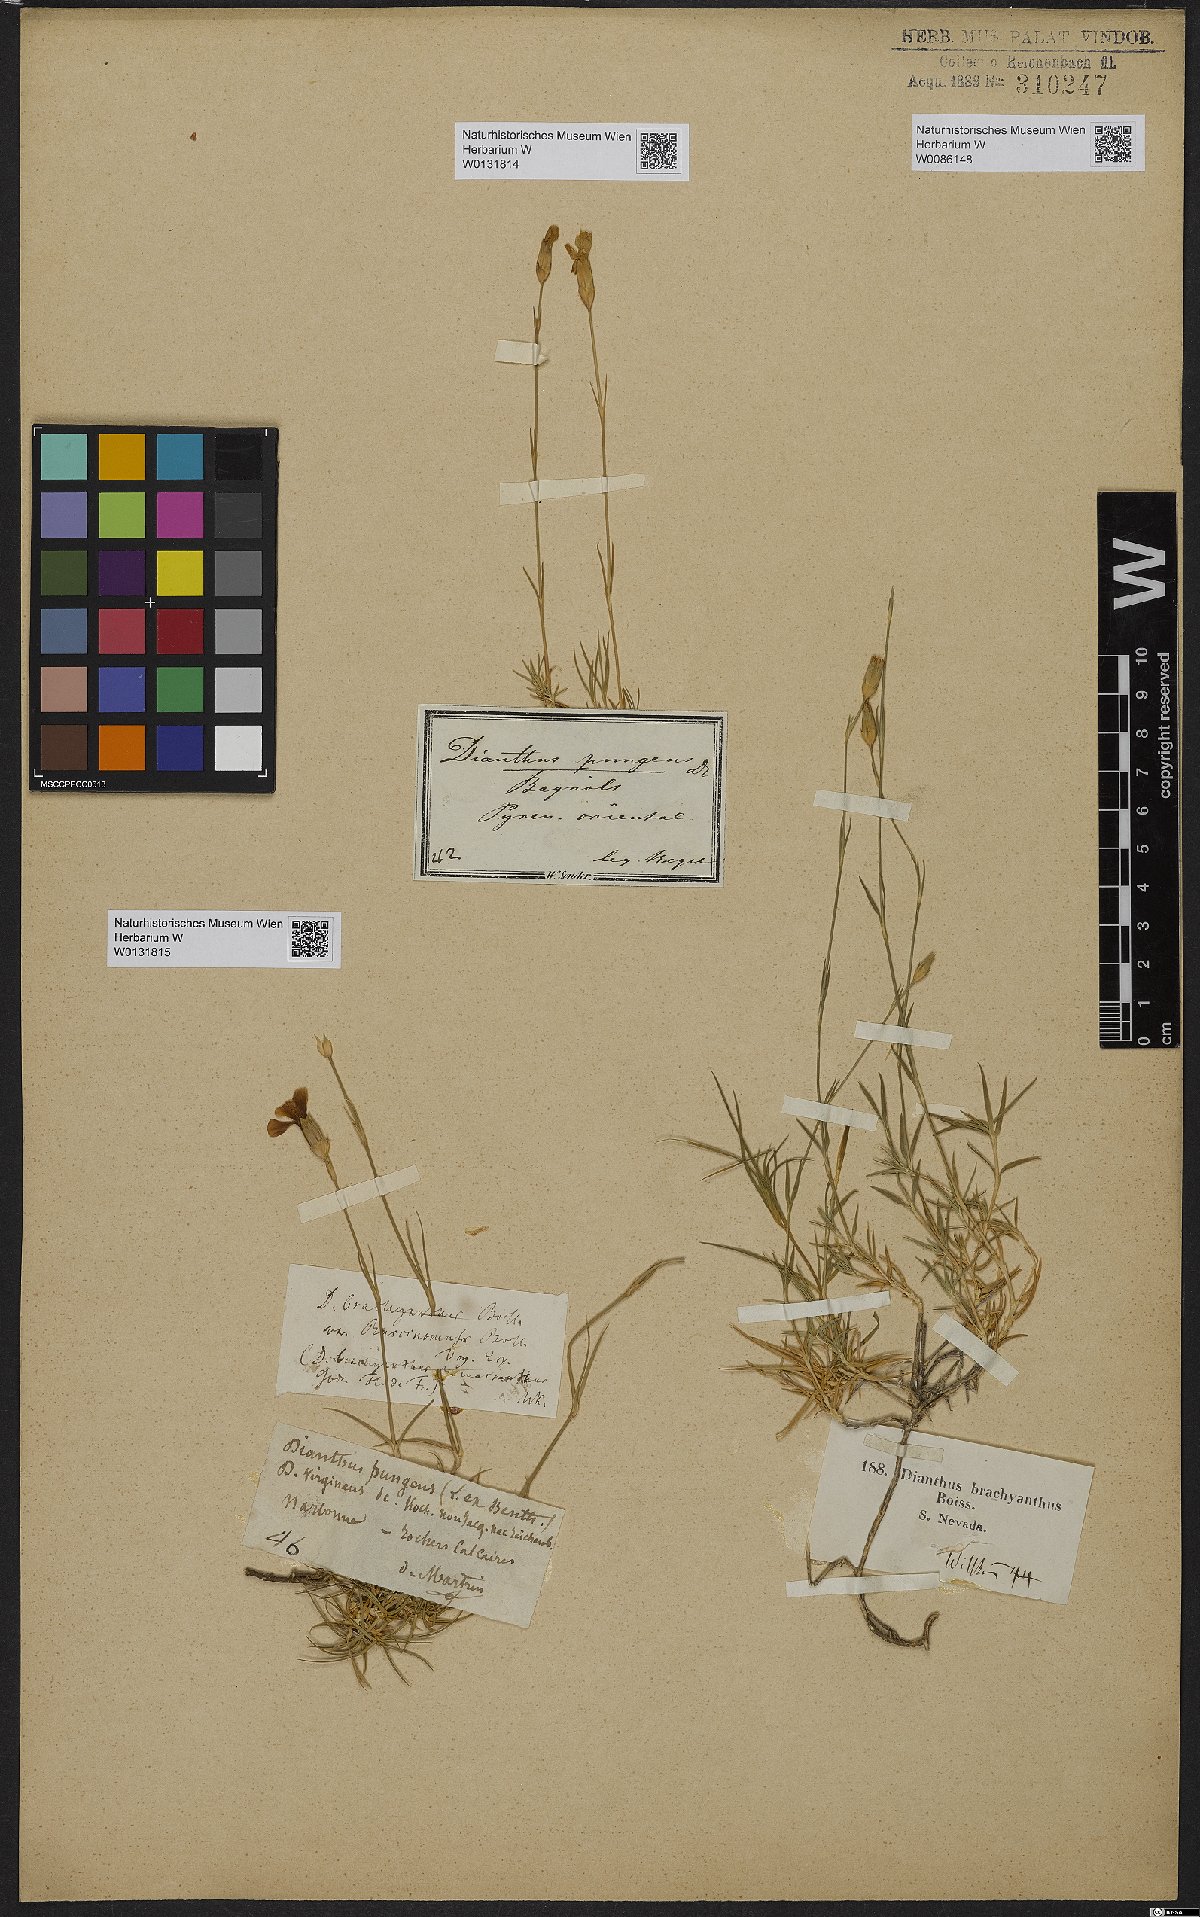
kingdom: Plantae
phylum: Tracheophyta
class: Magnoliopsida
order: Caryophyllales
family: Caryophyllaceae
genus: Dianthus
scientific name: Dianthus pungens
